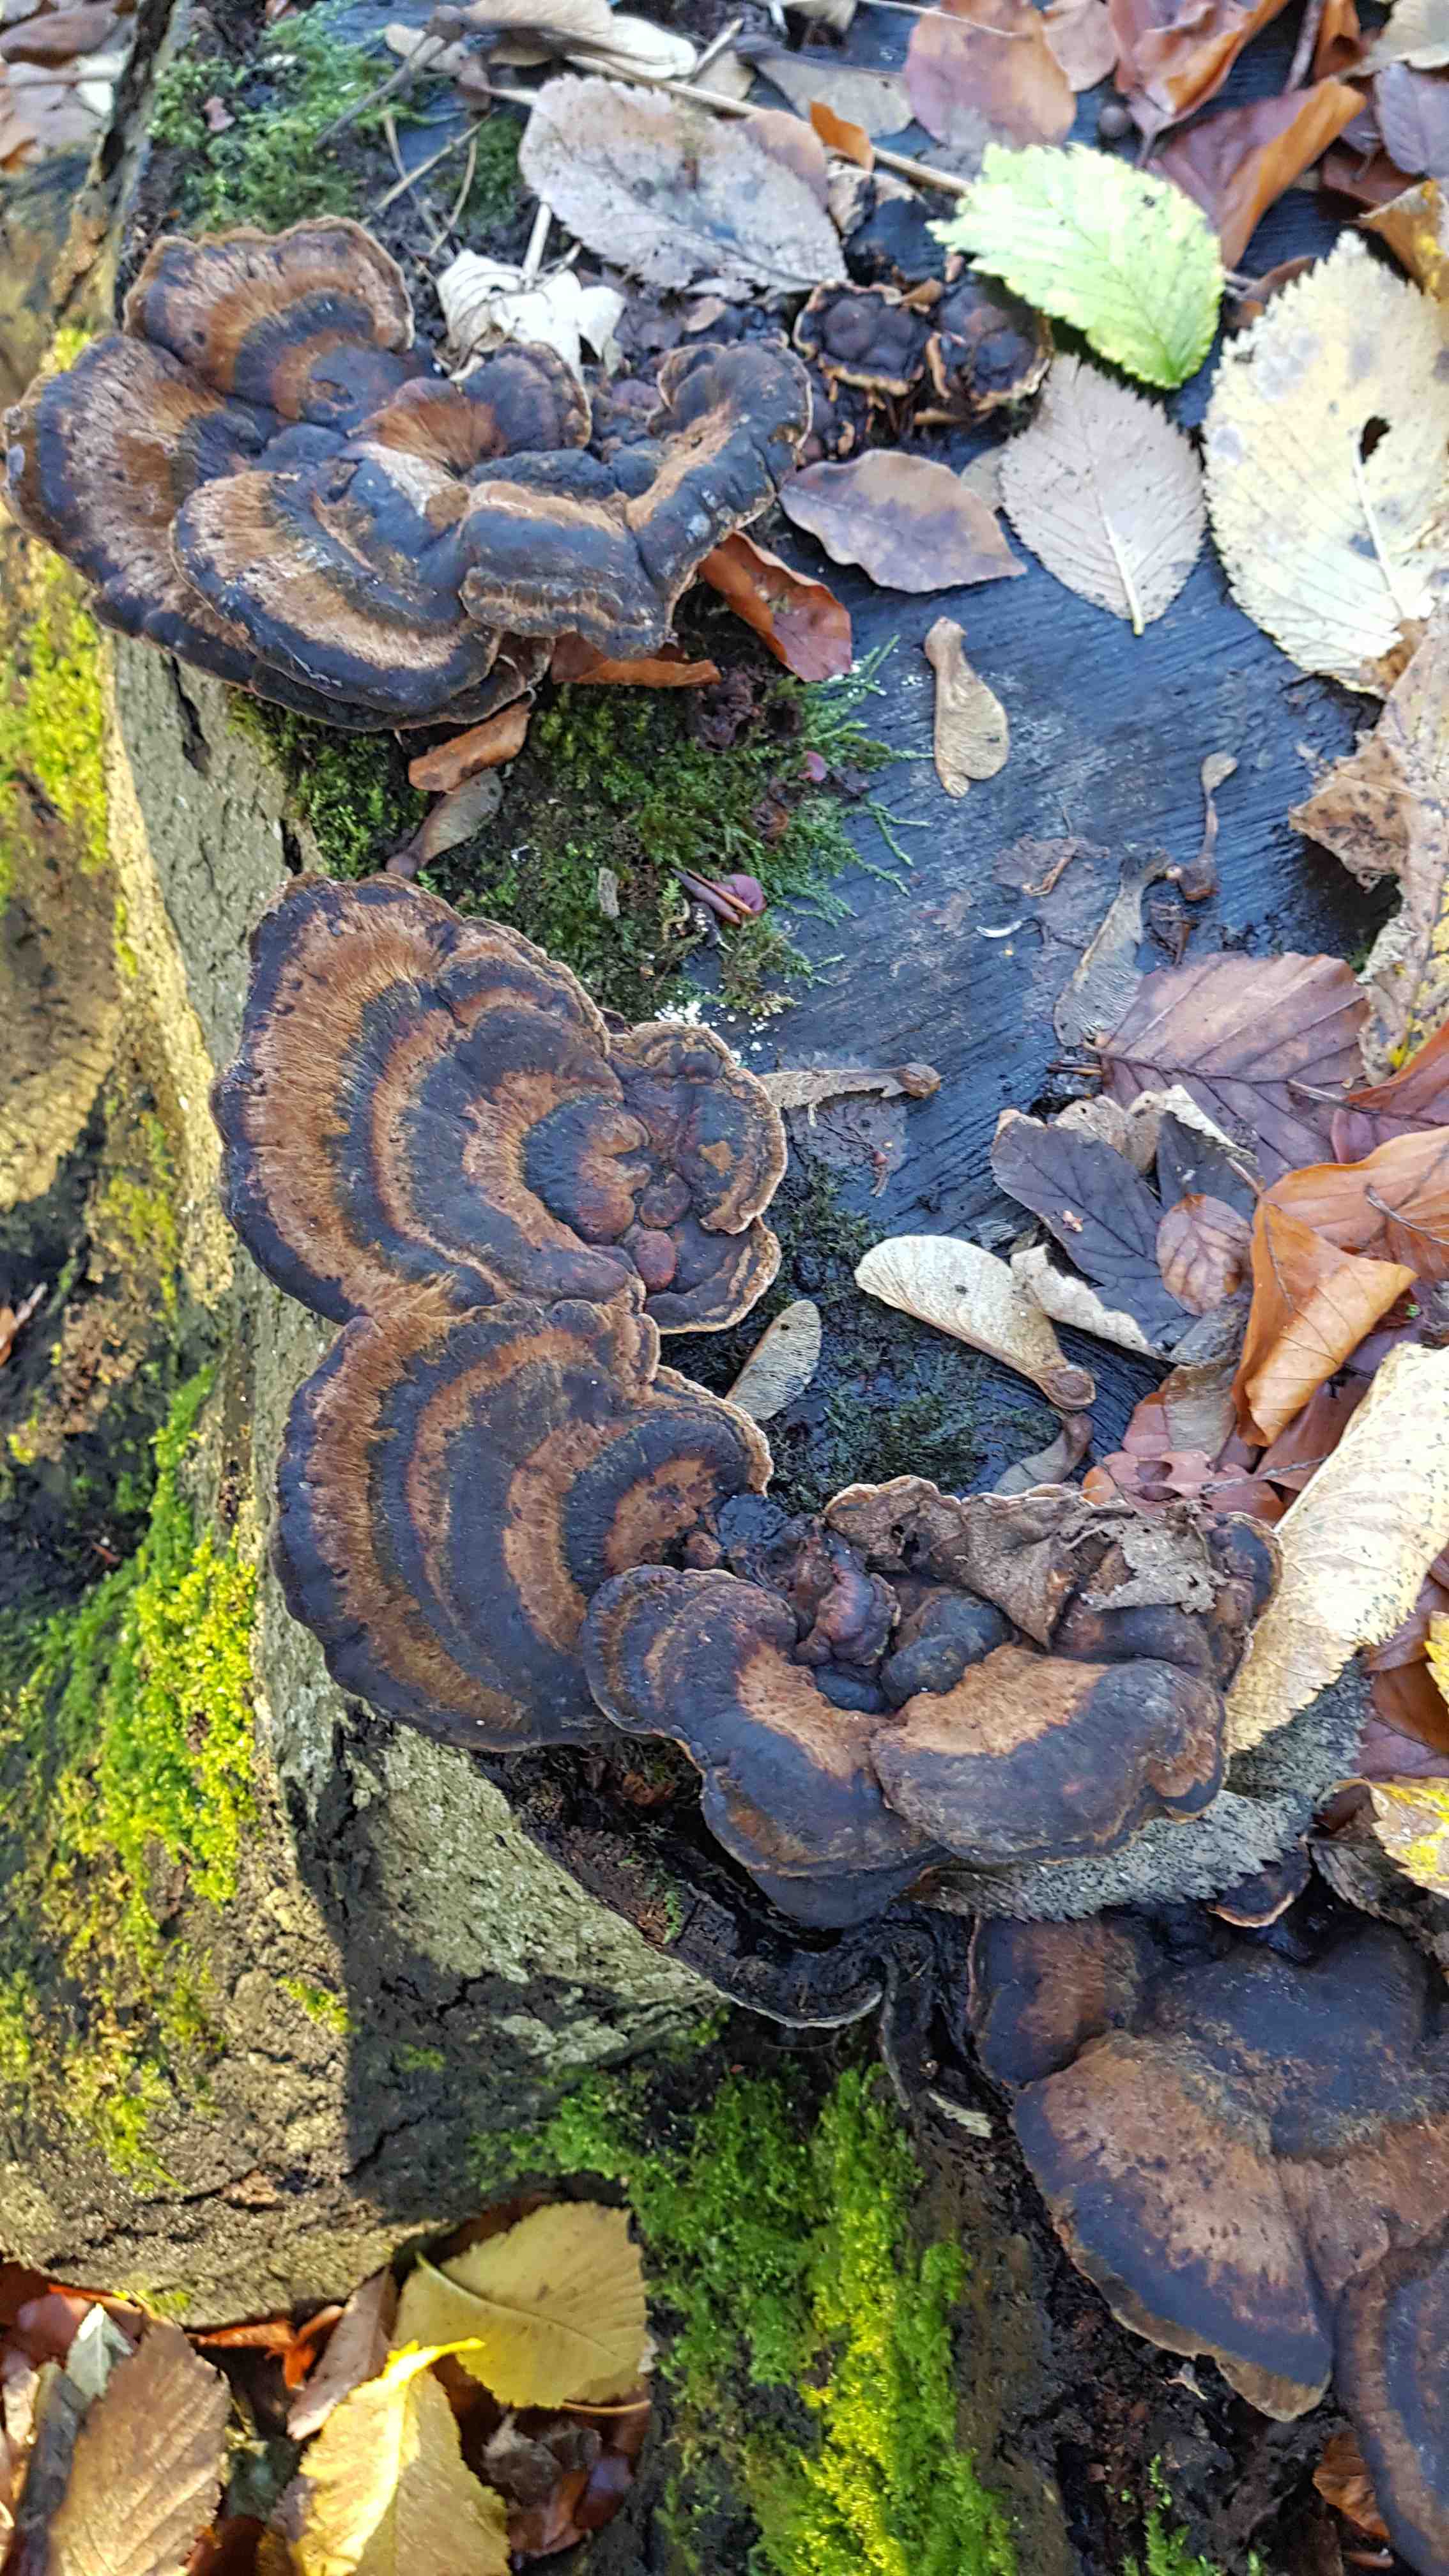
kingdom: Fungi
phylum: Basidiomycota
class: Agaricomycetes
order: Polyporales
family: Ischnodermataceae
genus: Ischnoderma
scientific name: Ischnoderma resinosum
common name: løv-tjæreporesvamp
